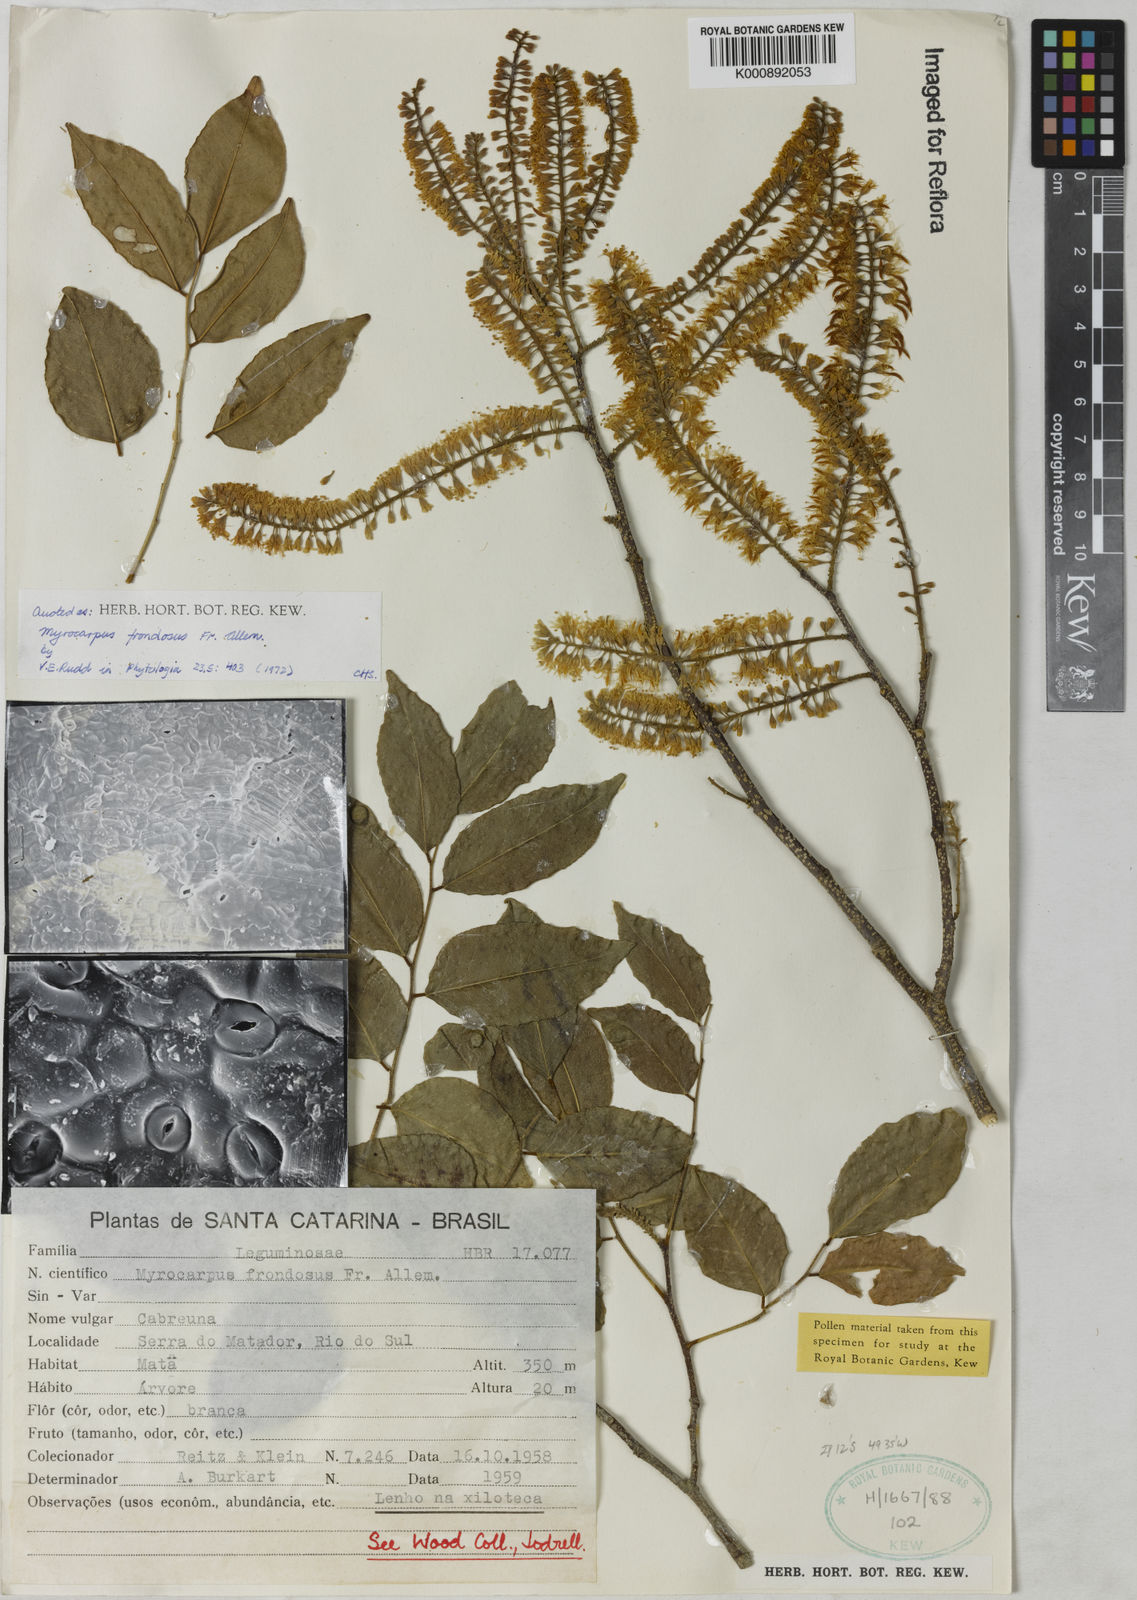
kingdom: Plantae
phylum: Tracheophyta
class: Magnoliopsida
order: Fabales
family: Fabaceae
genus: Myrocarpus
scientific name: Myrocarpus
